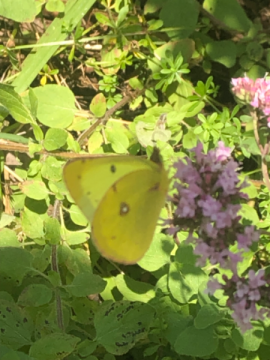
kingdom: Animalia
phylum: Arthropoda
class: Insecta
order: Lepidoptera
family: Pieridae
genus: Colias
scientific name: Colias philodice
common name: Clouded Sulphur
